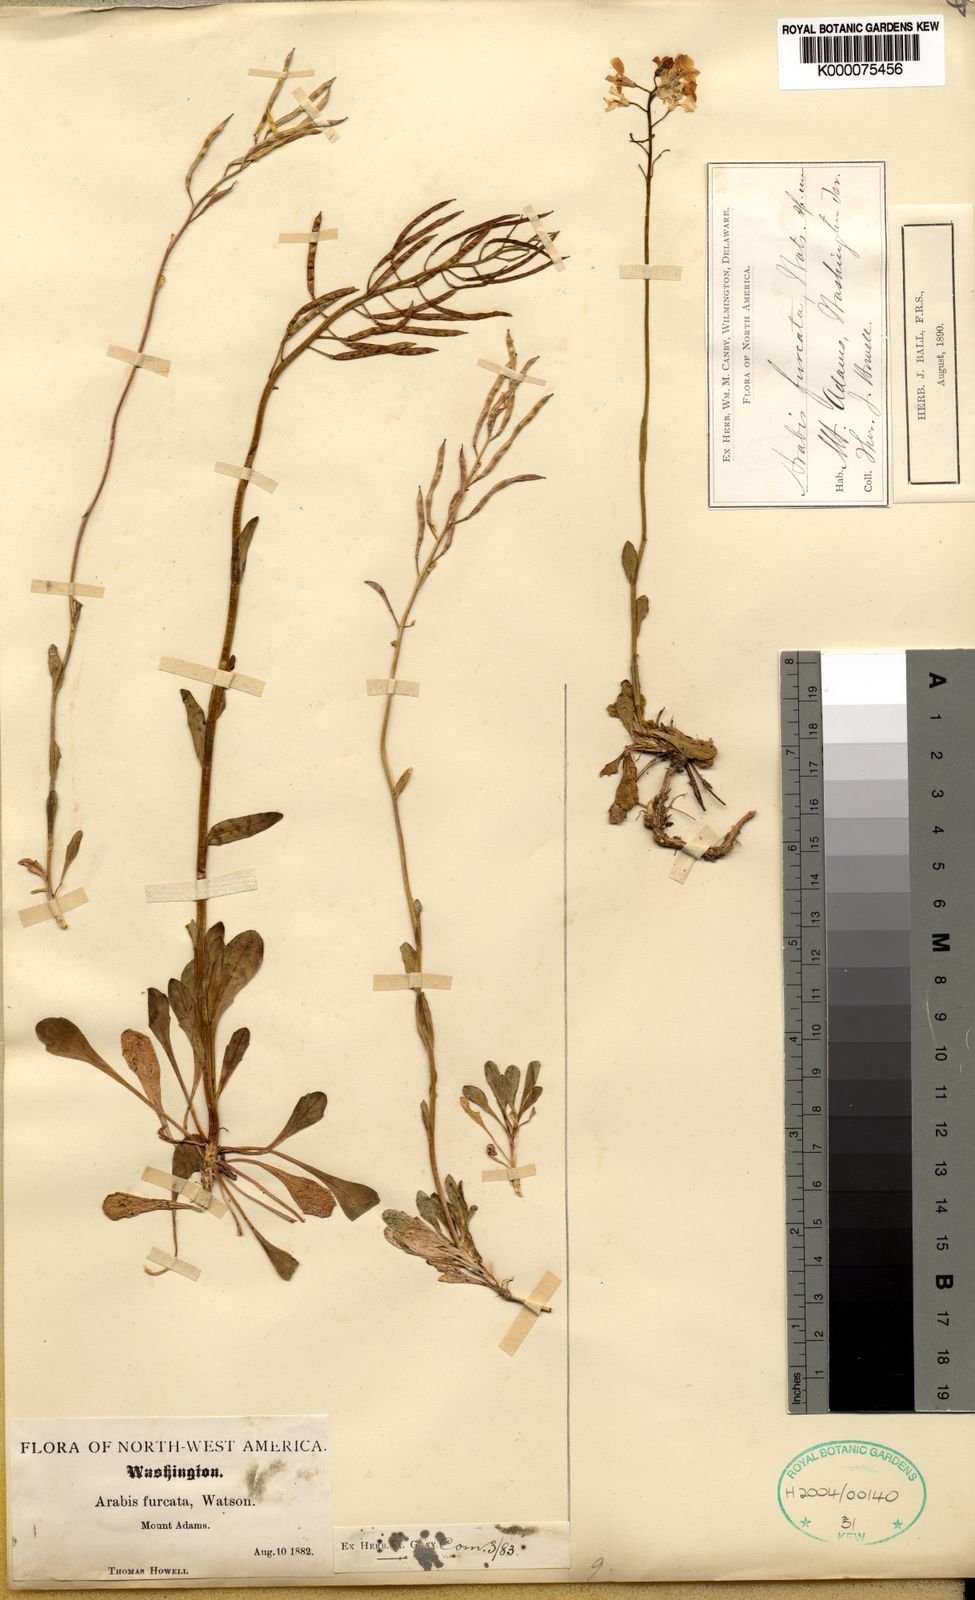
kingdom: Plantae
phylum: Tracheophyta
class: Magnoliopsida
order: Brassicales
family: Brassicaceae
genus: Arabis
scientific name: Arabis furcata
